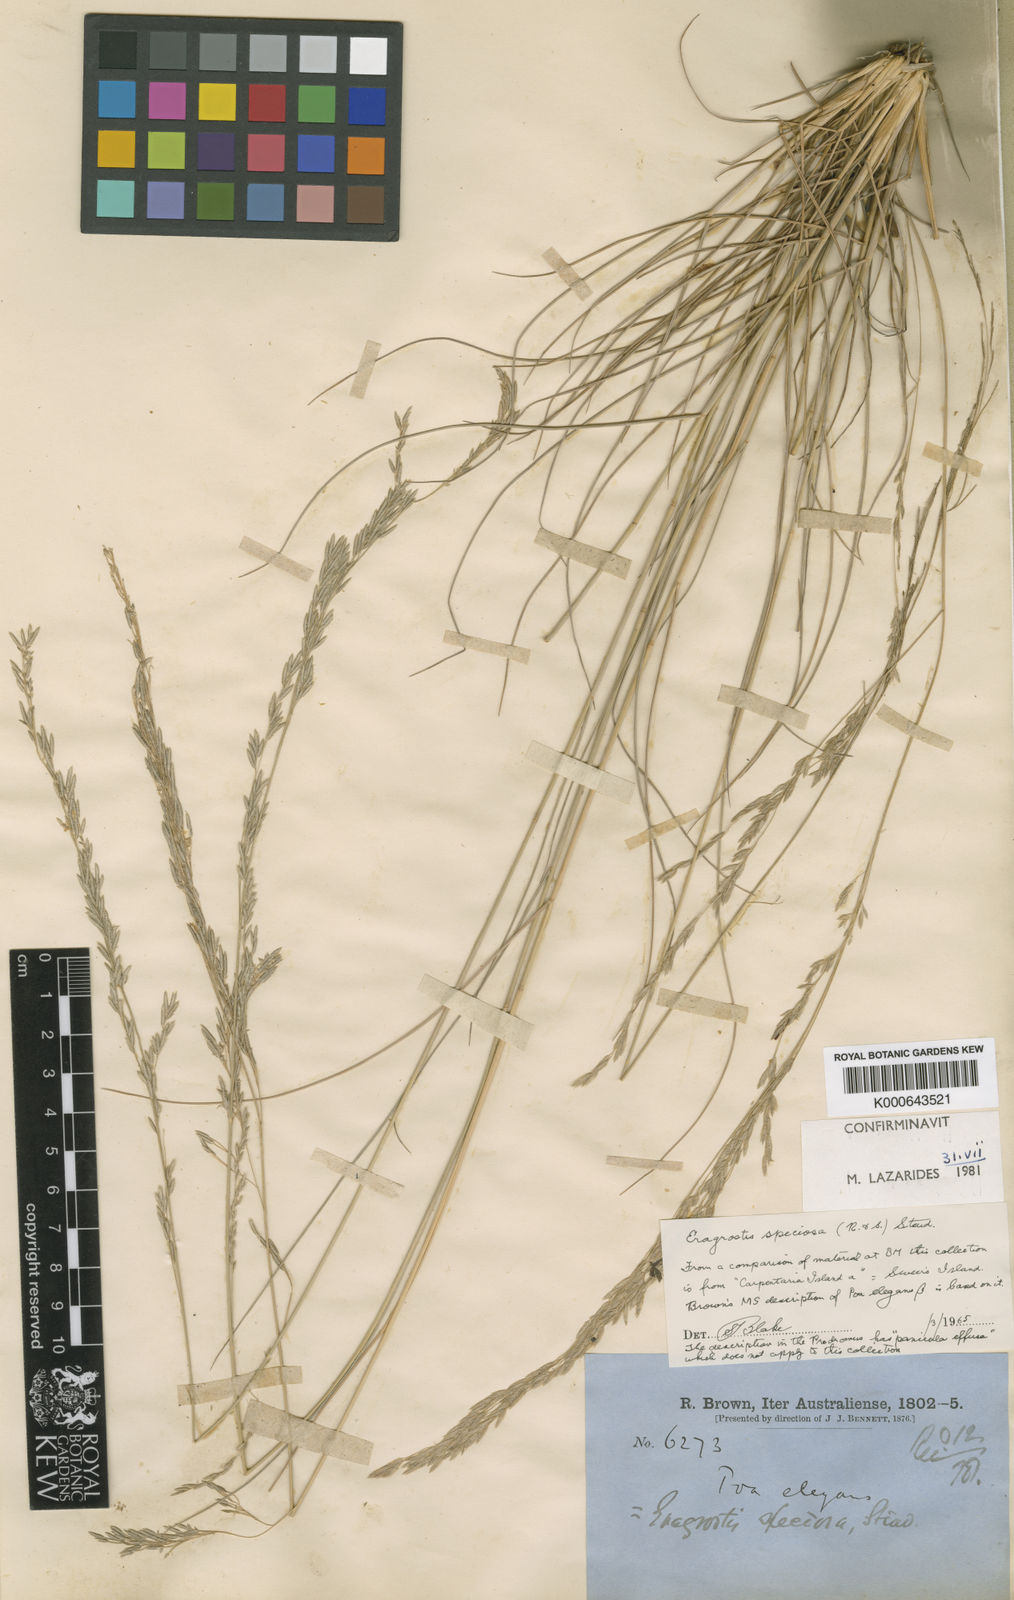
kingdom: Plantae
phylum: Tracheophyta
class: Liliopsida
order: Poales
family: Poaceae
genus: Eragrostis
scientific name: Eragrostis speciosa
